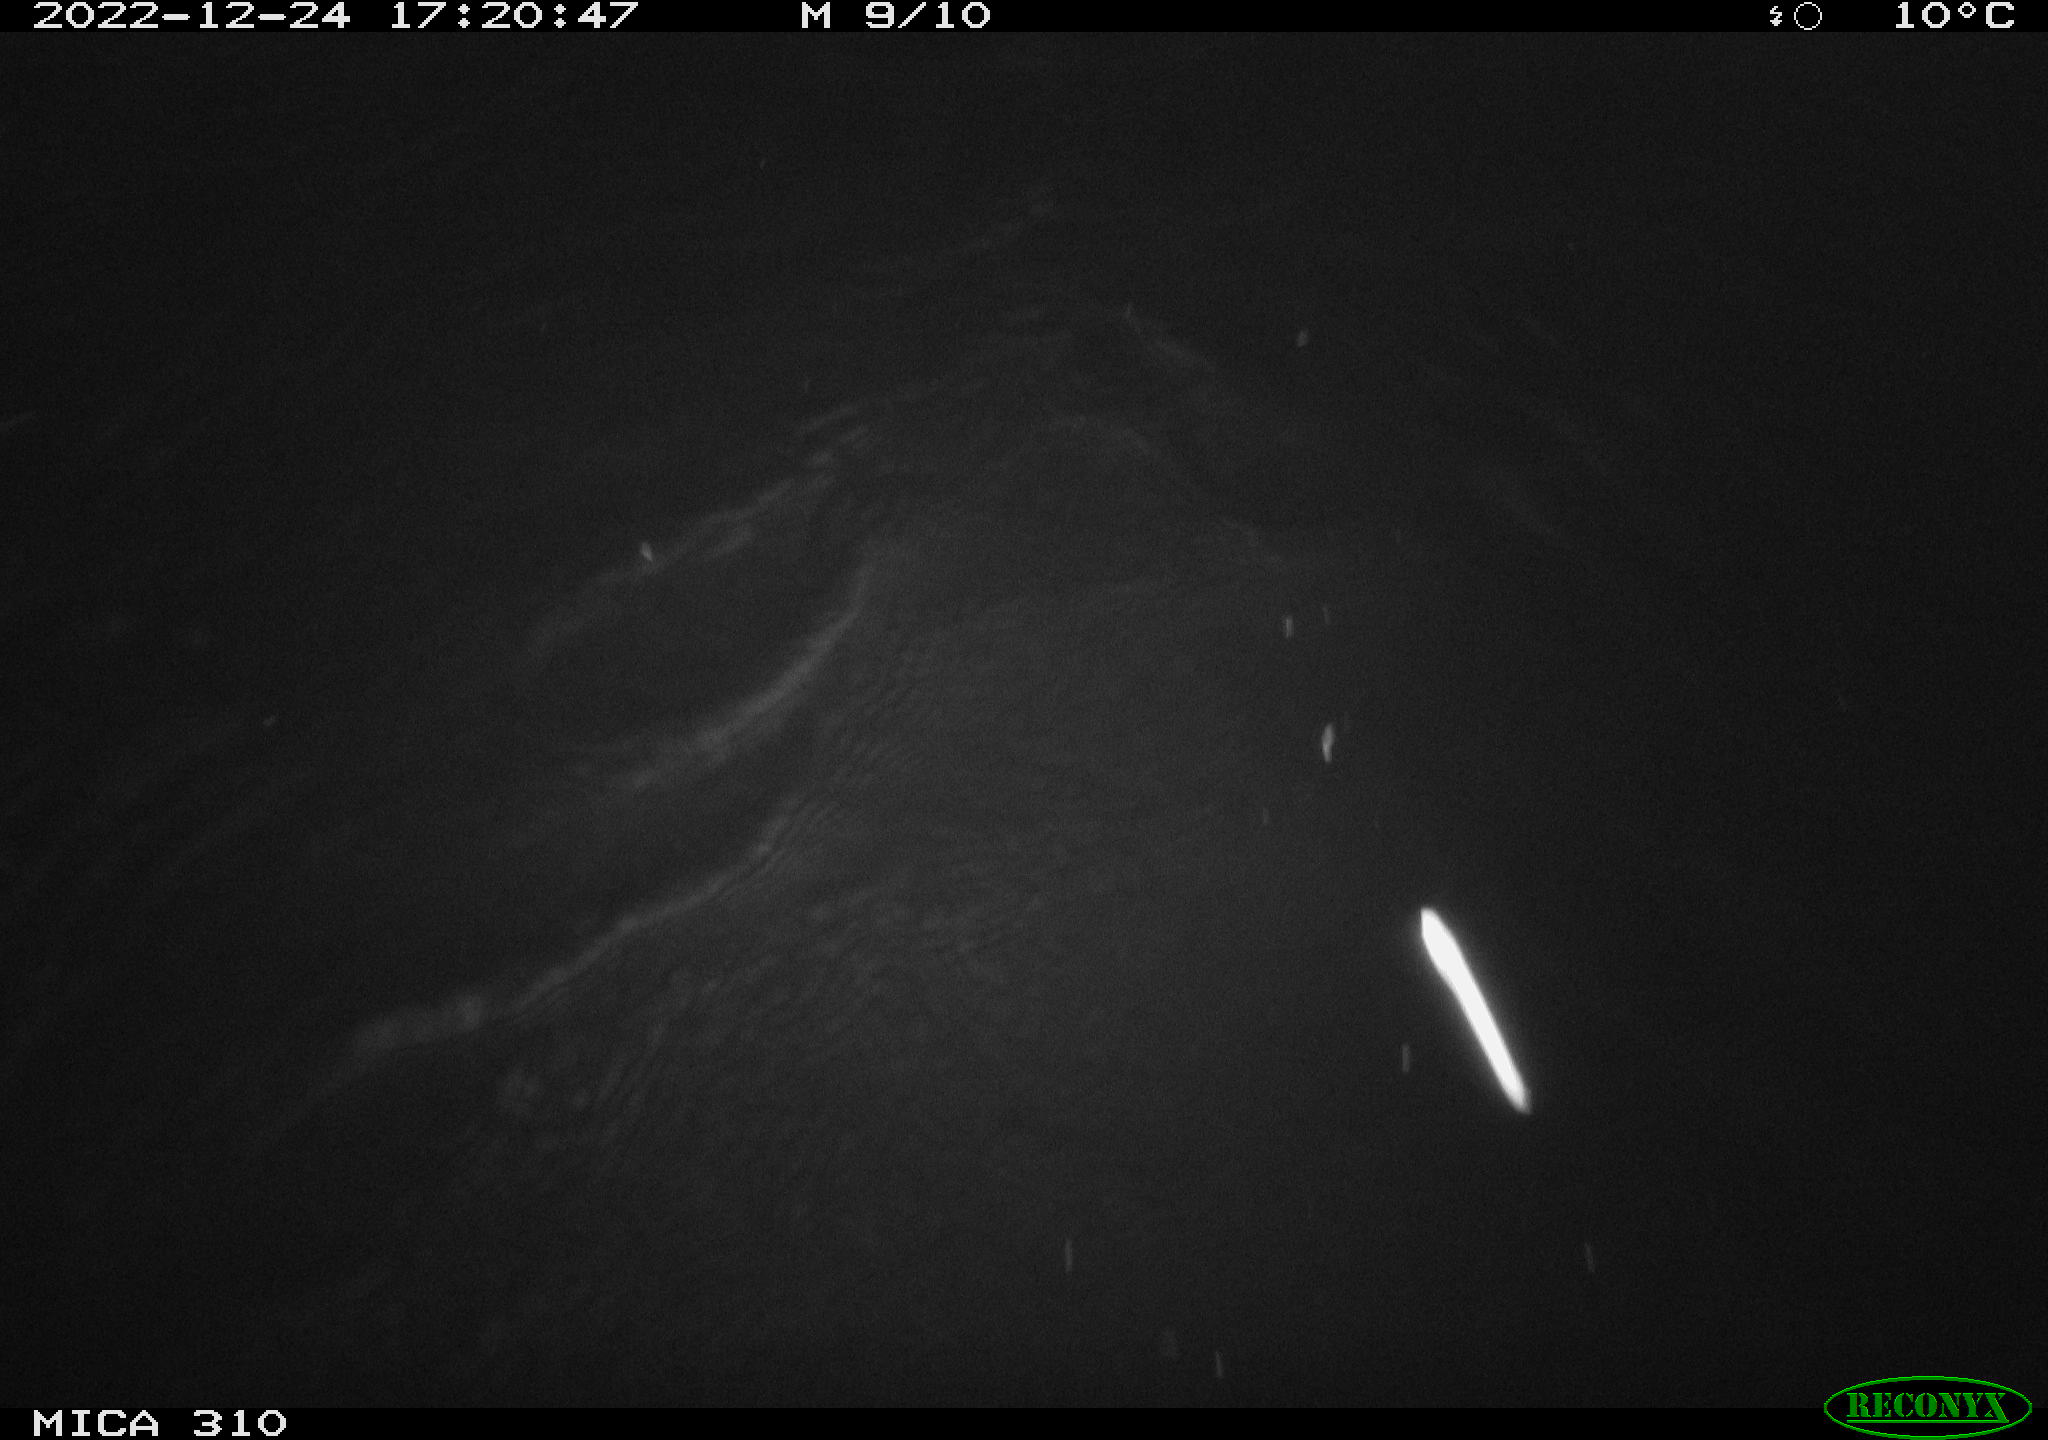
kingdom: Animalia
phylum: Chordata
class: Aves
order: Anseriformes
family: Anatidae
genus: Anas
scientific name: Anas
